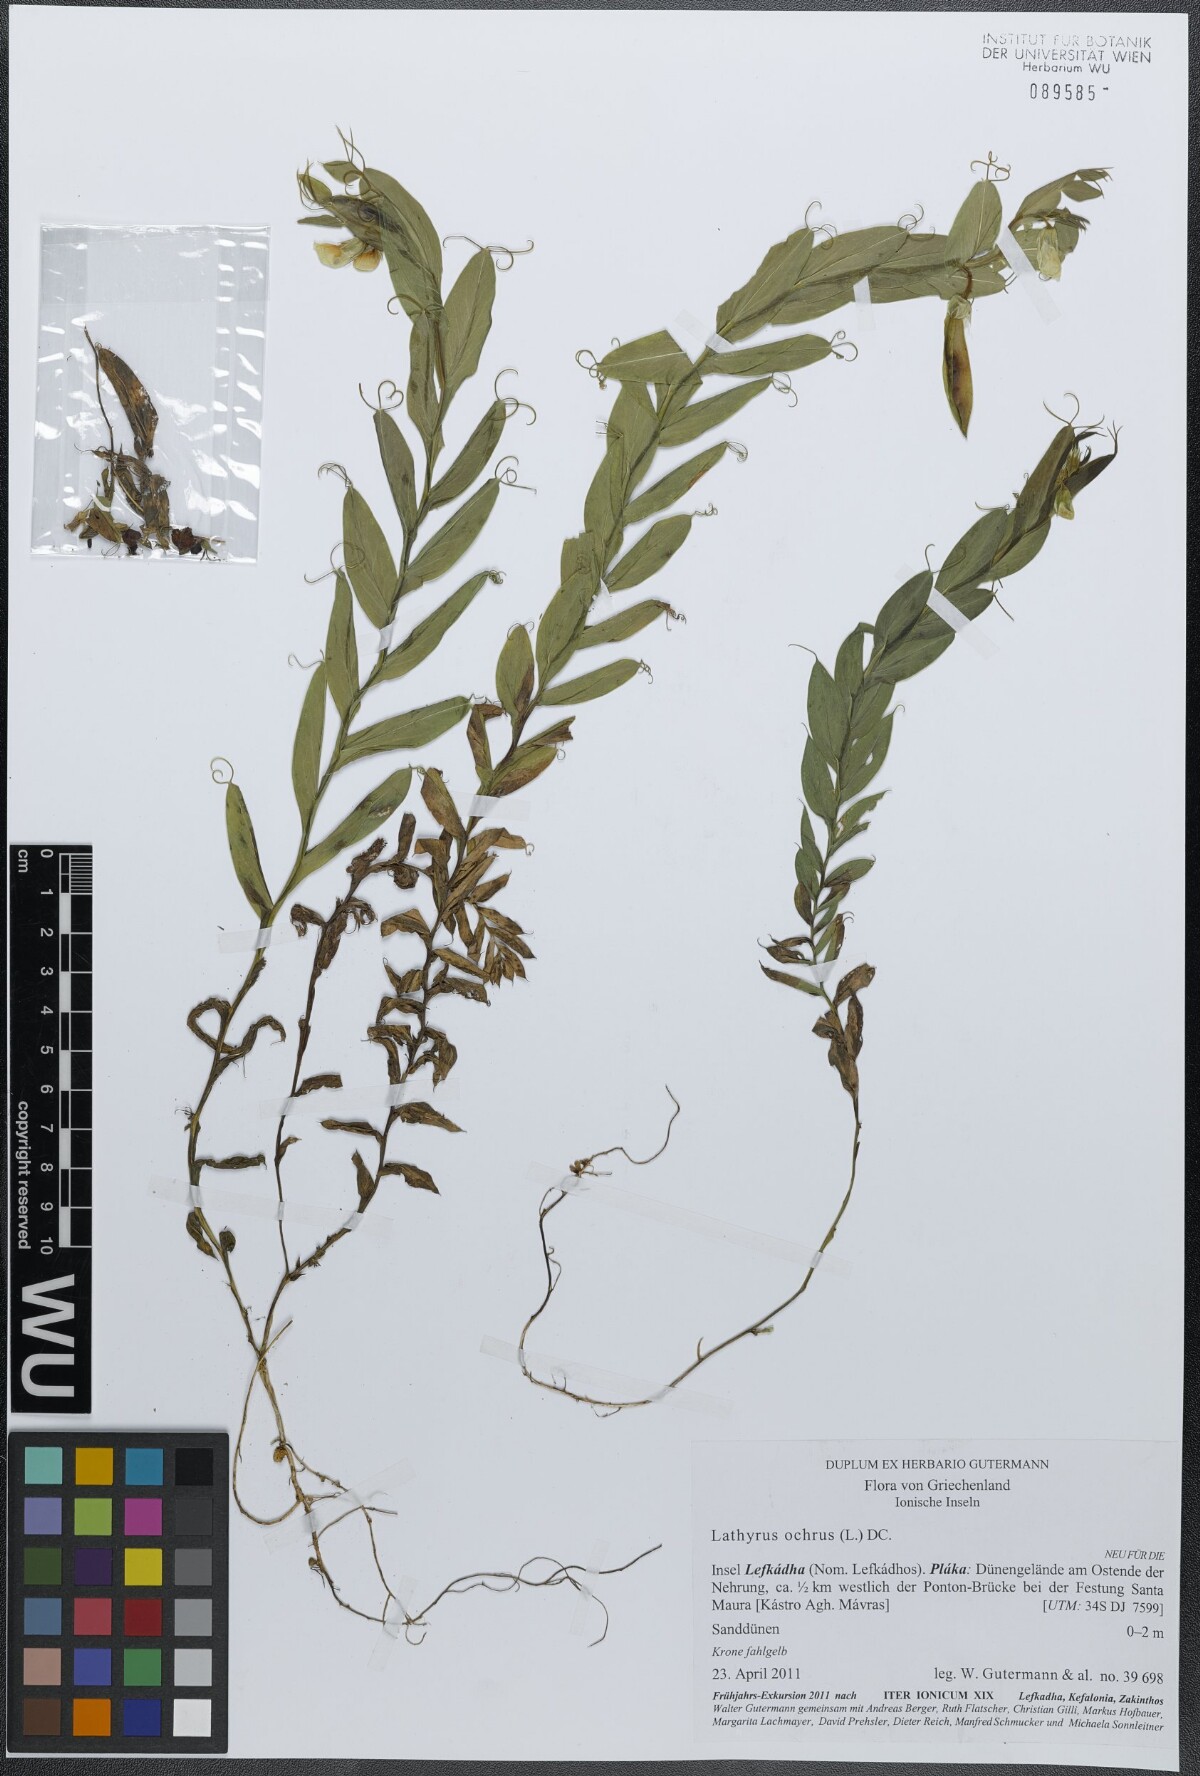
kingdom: Plantae
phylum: Tracheophyta
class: Magnoliopsida
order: Fabales
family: Fabaceae
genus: Lathyrus
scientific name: Lathyrus ochrus
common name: Winged vetchling
